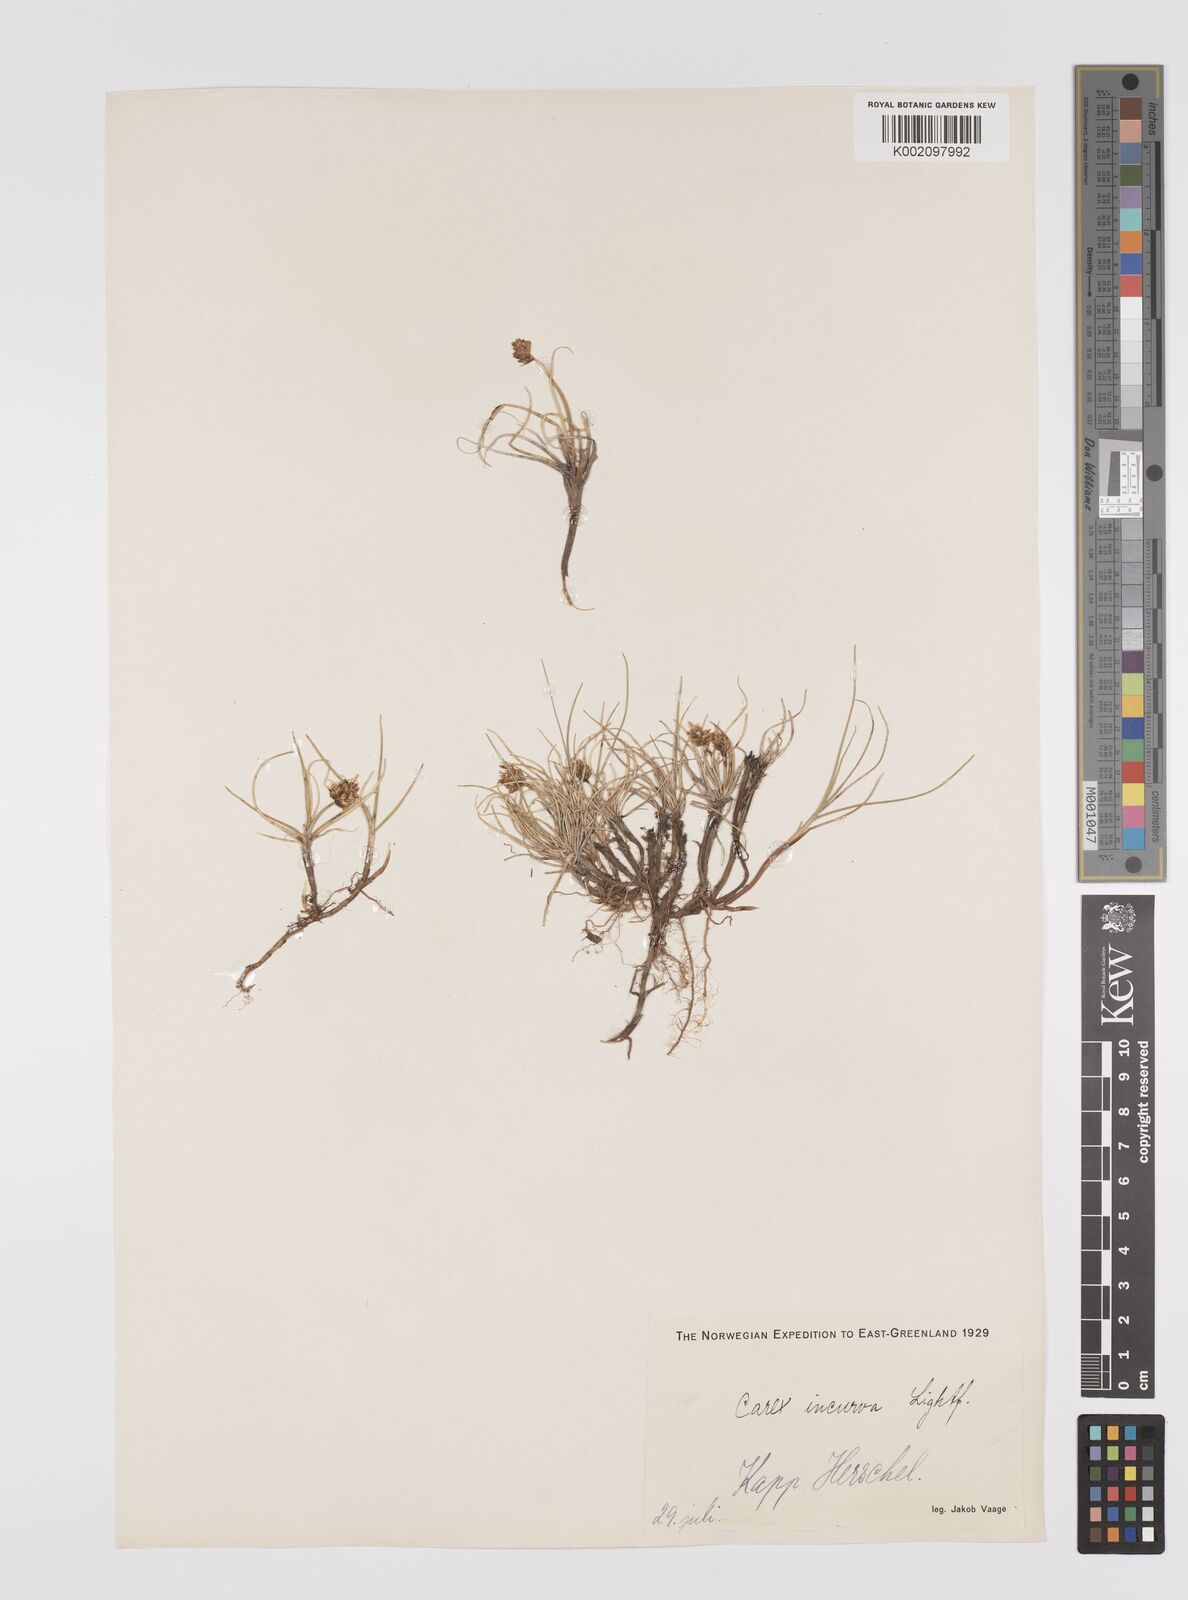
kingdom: Plantae
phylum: Tracheophyta
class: Liliopsida
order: Poales
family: Cyperaceae
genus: Carex
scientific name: Carex maritima
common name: Curved sedge
